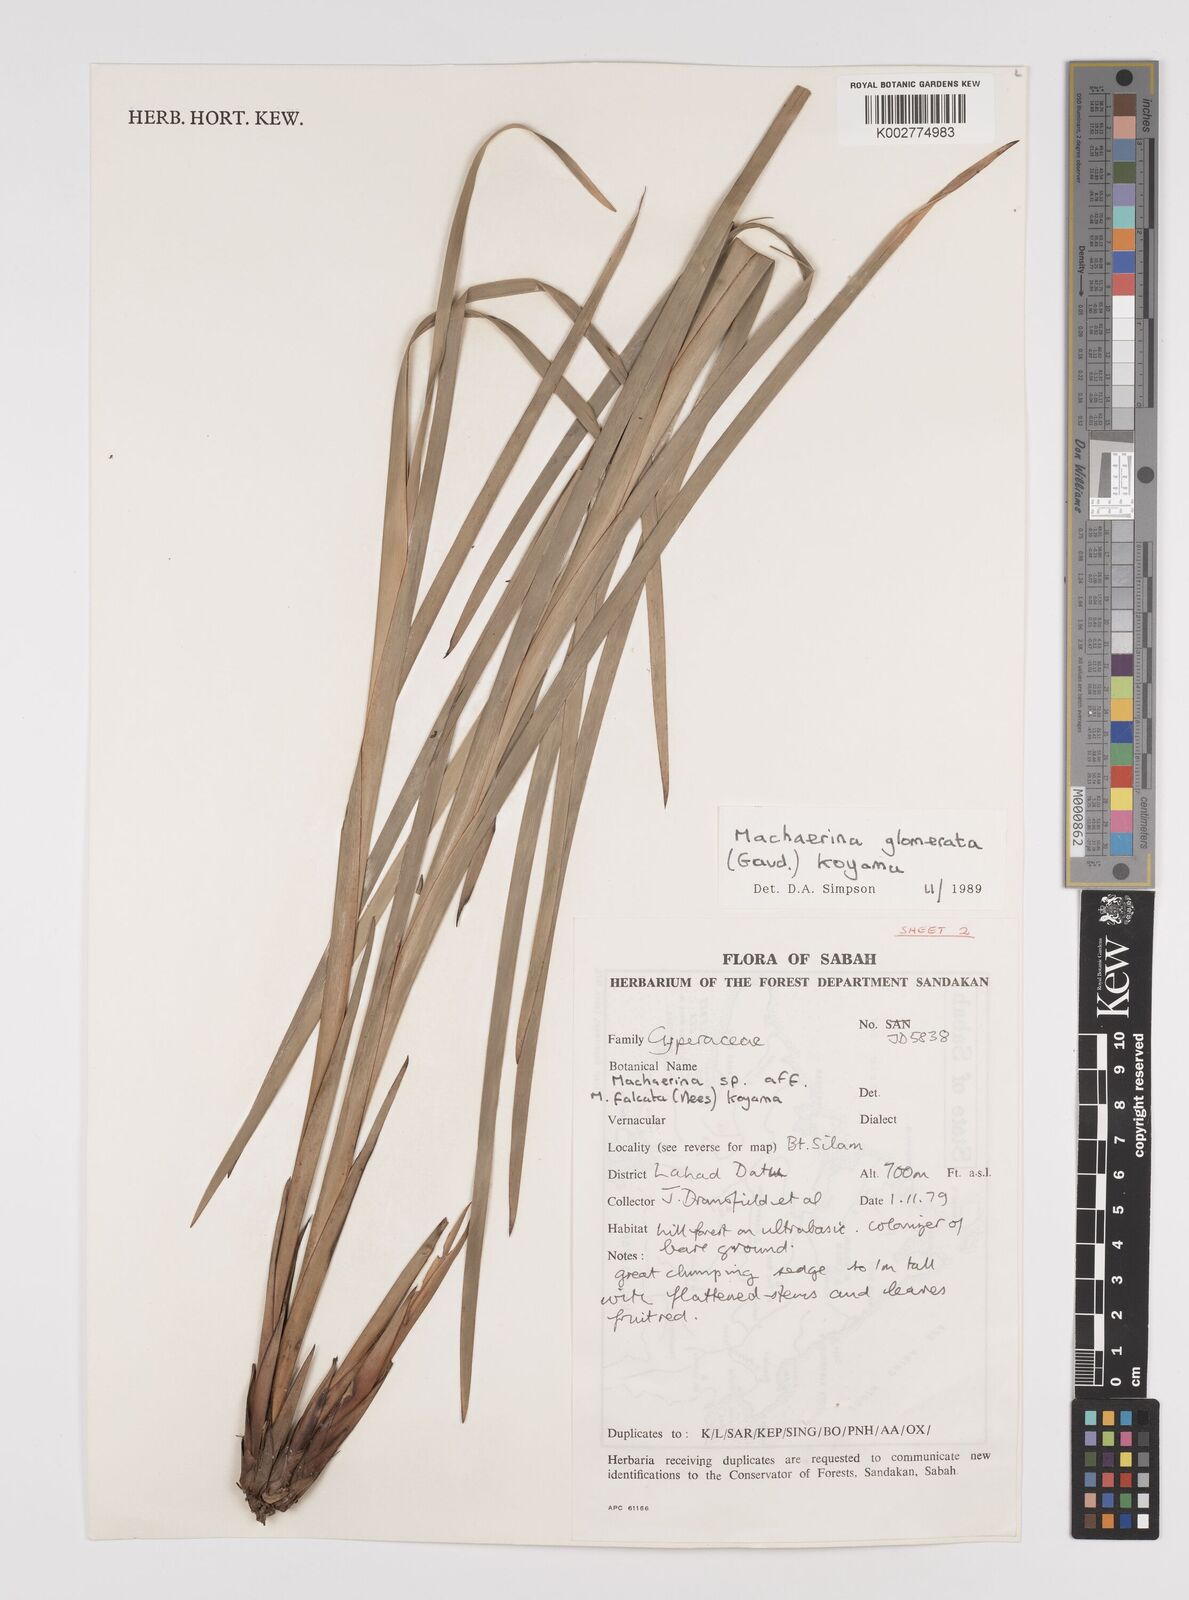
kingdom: Plantae
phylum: Tracheophyta
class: Liliopsida
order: Poales
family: Cyperaceae
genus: Machaerina
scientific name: Machaerina glomerata
